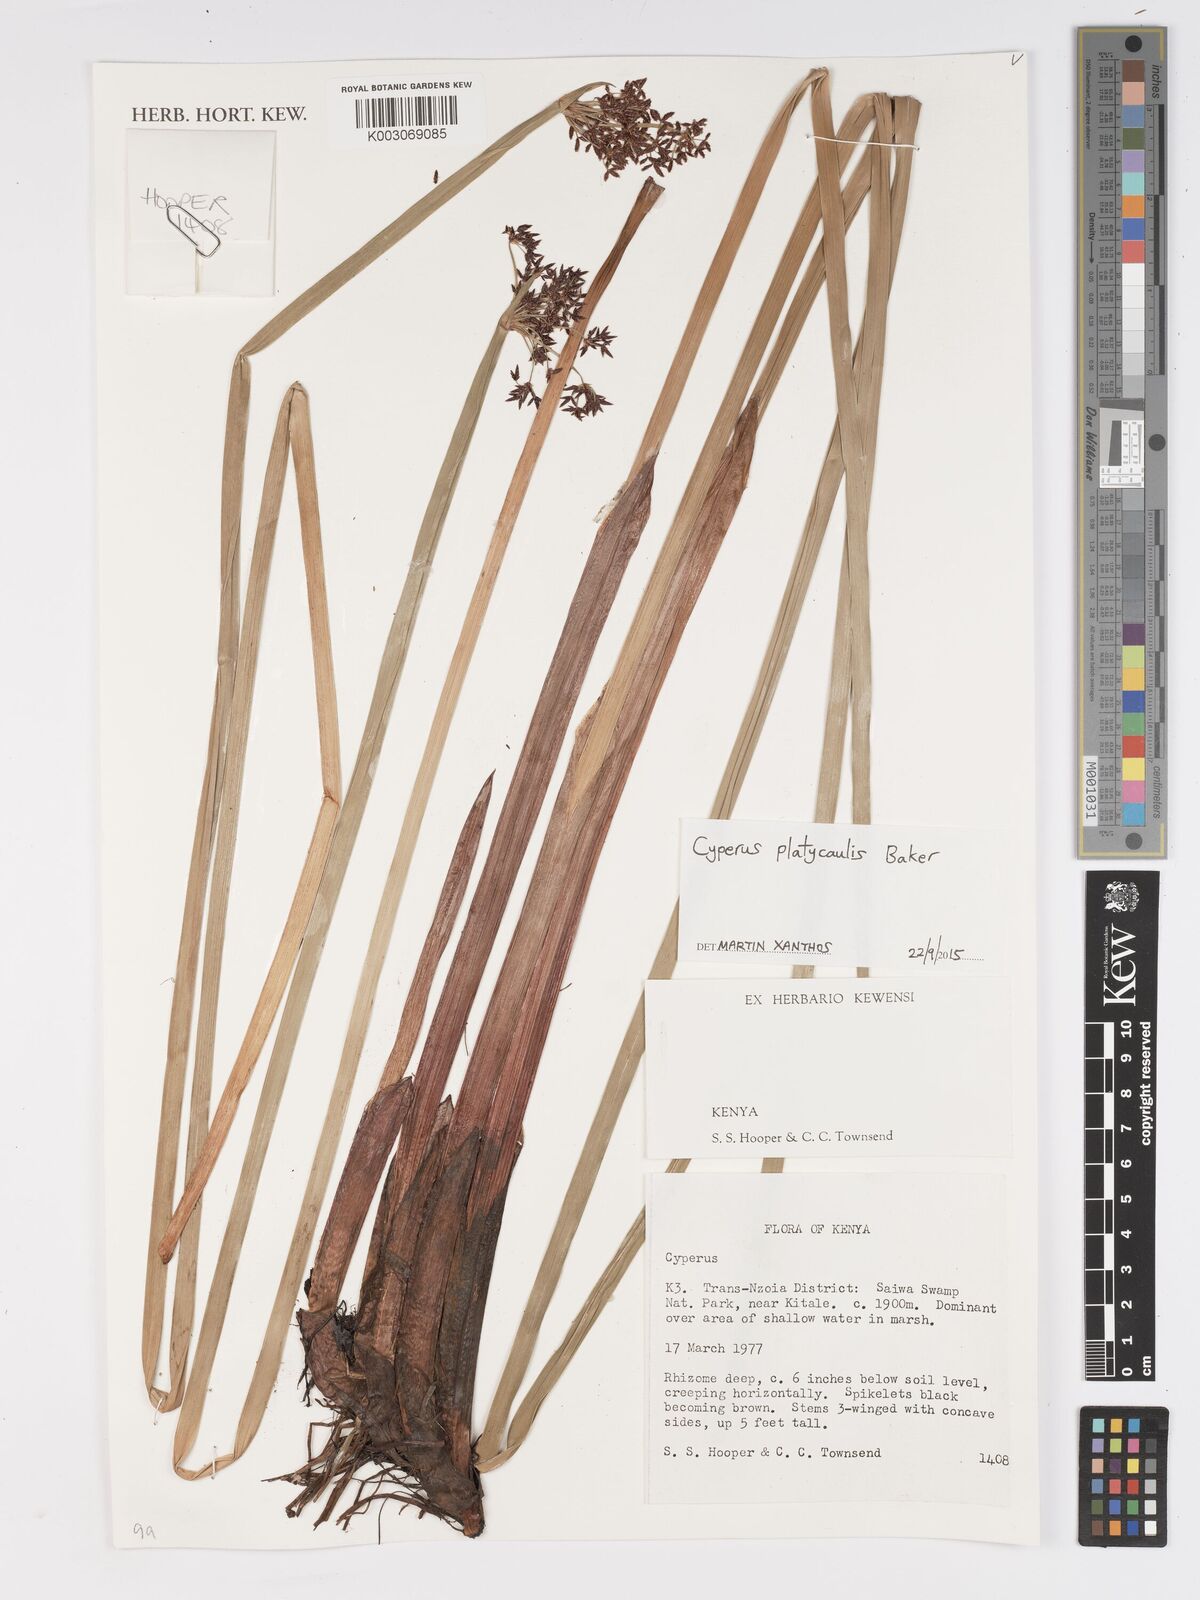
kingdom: Plantae
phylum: Tracheophyta
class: Liliopsida
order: Poales
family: Cyperaceae
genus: Cyperus
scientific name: Cyperus platycaulis
